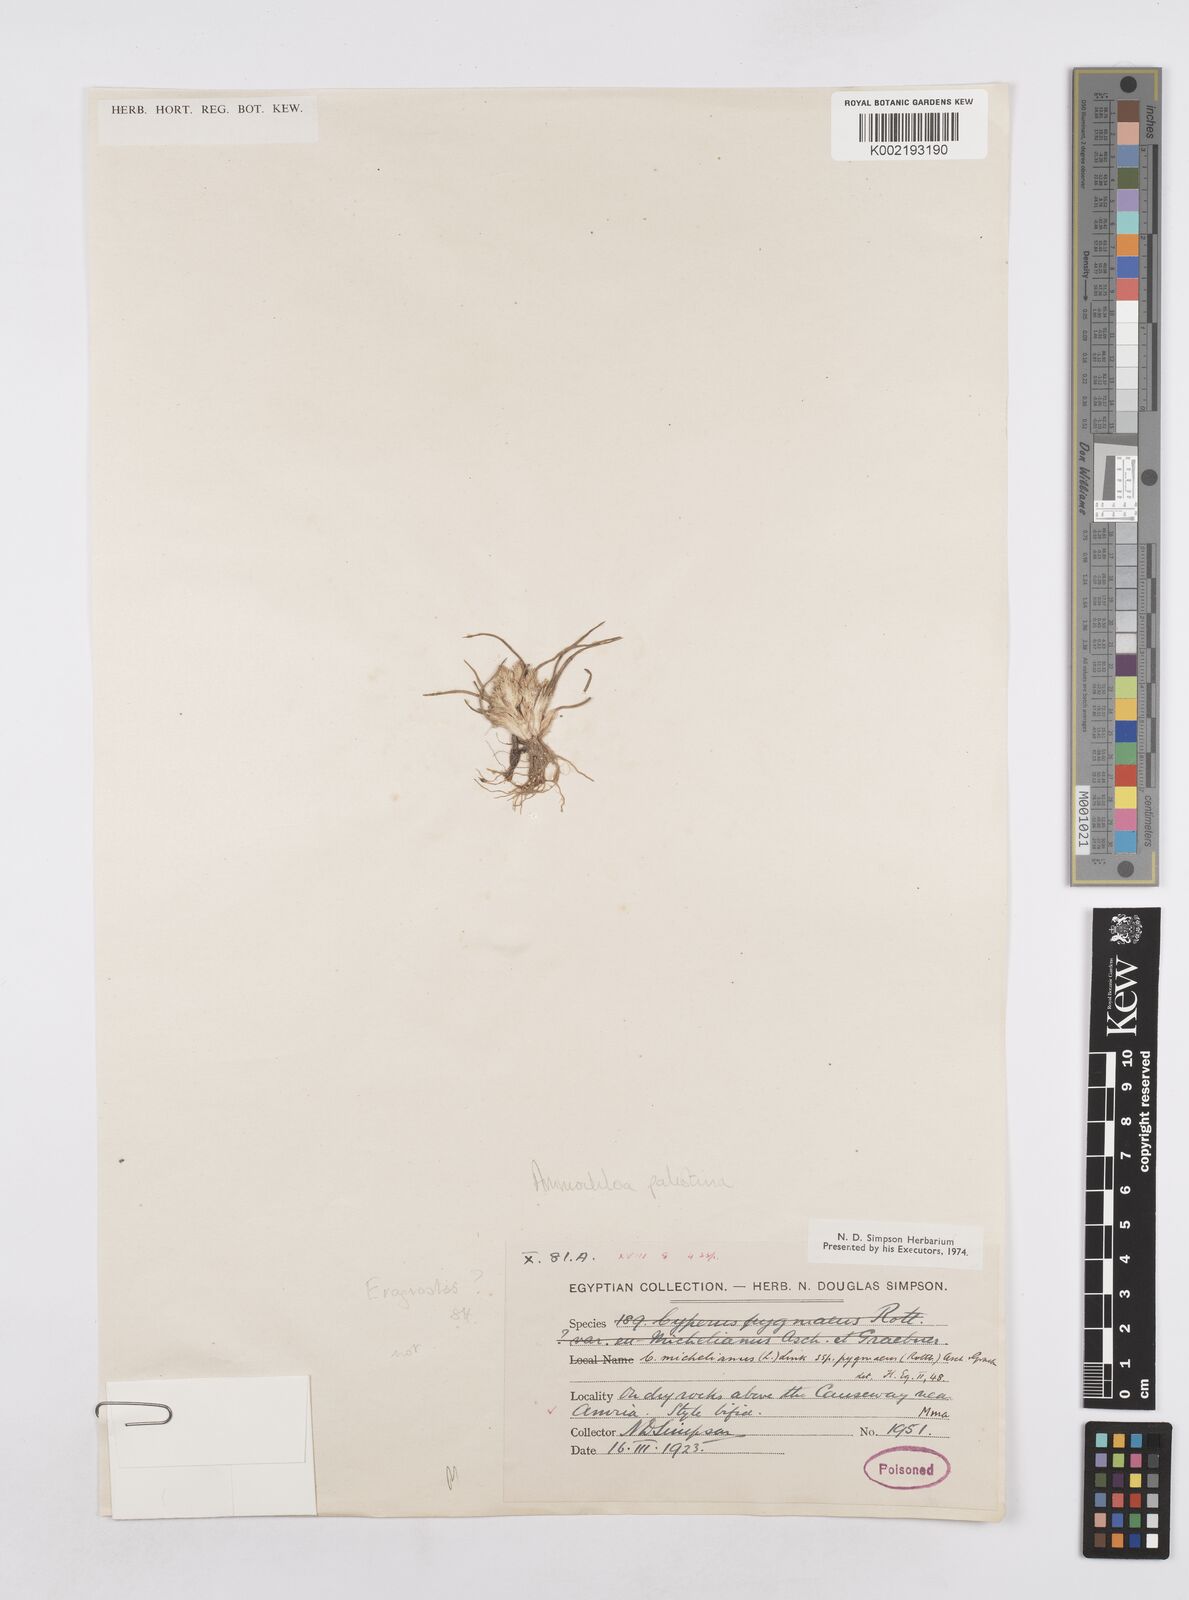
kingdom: Plantae
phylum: Tracheophyta
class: Liliopsida
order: Poales
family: Poaceae
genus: Ammochloa
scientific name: Ammochloa palaestina
